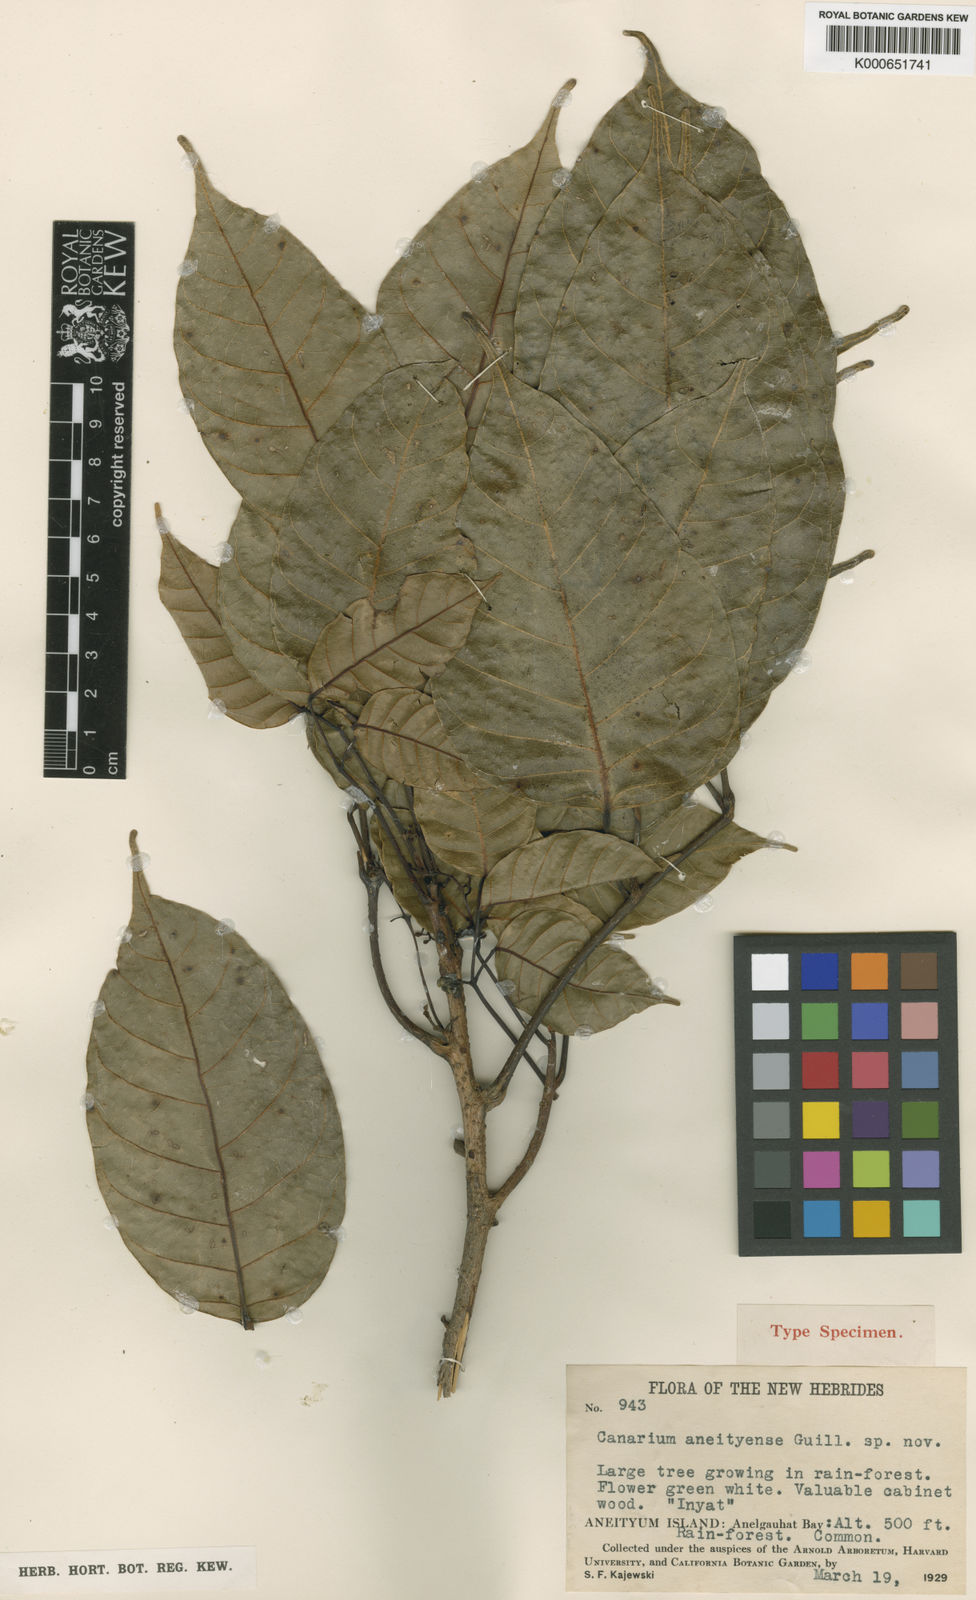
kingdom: Plantae
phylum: Tracheophyta
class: Magnoliopsida
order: Sapindales
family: Burseraceae
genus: Haplolobus
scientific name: Haplolobus floribundus
